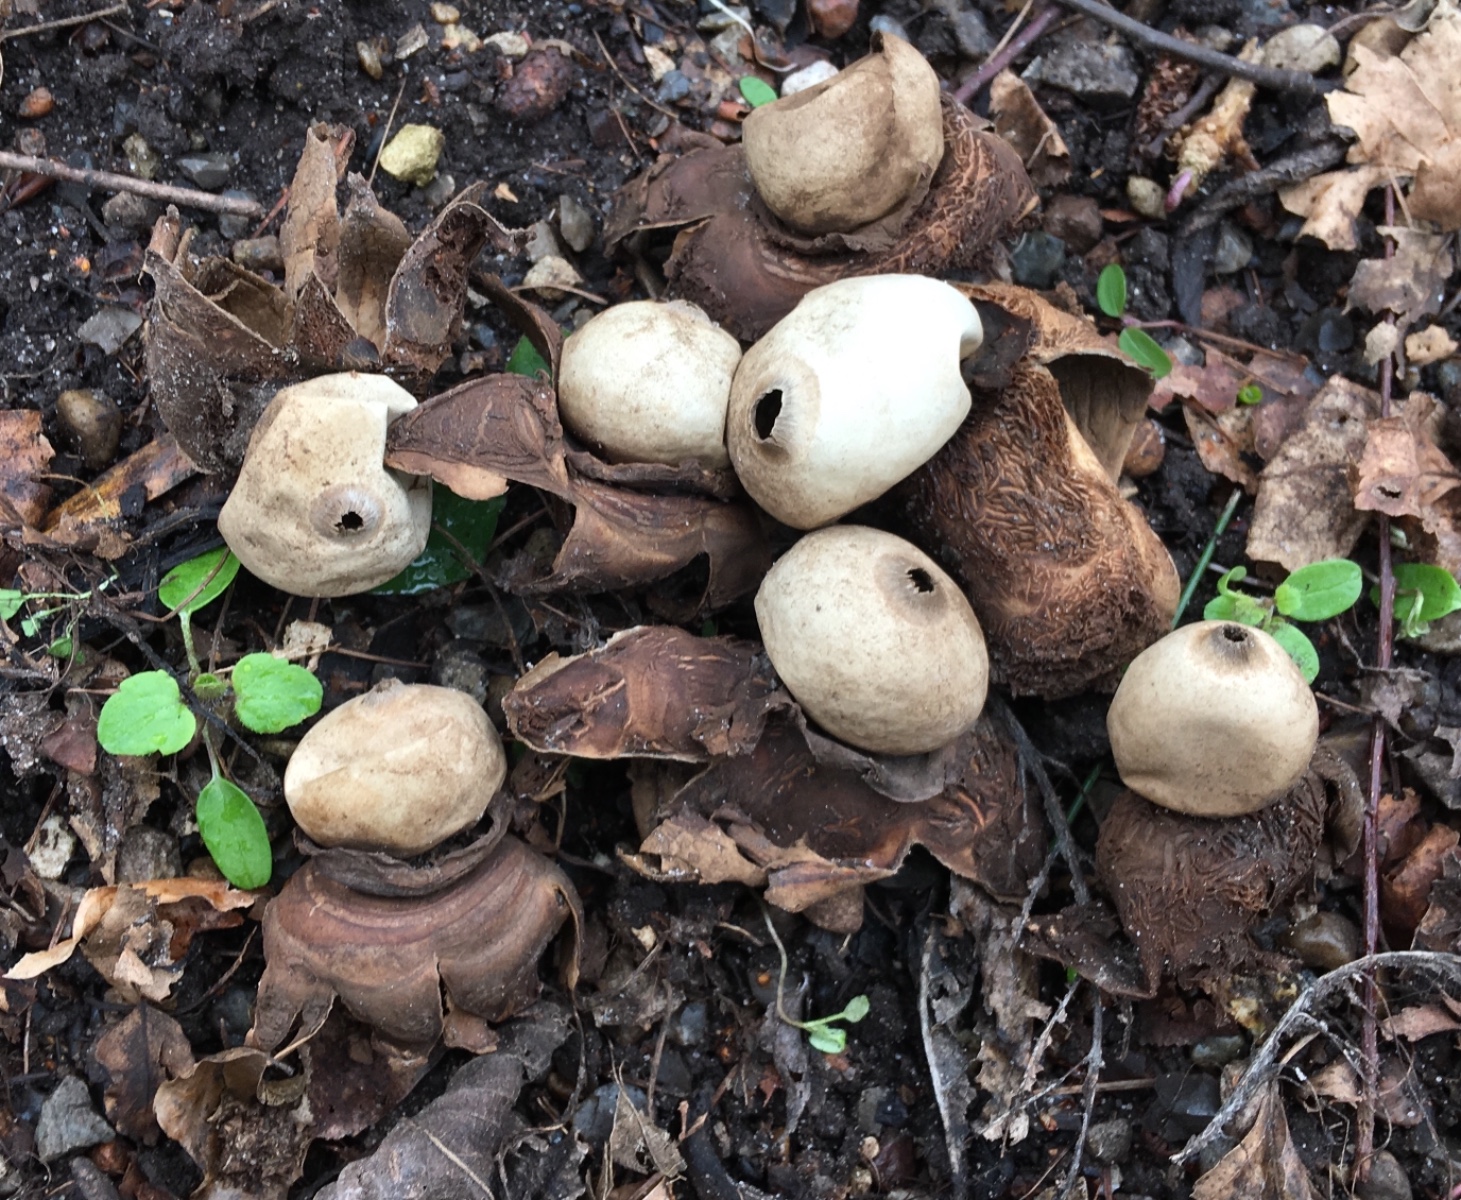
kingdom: Fungi
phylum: Basidiomycota
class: Agaricomycetes
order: Geastrales
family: Geastraceae
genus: Geastrum
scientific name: Geastrum michelianum
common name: kødet stjernebold
